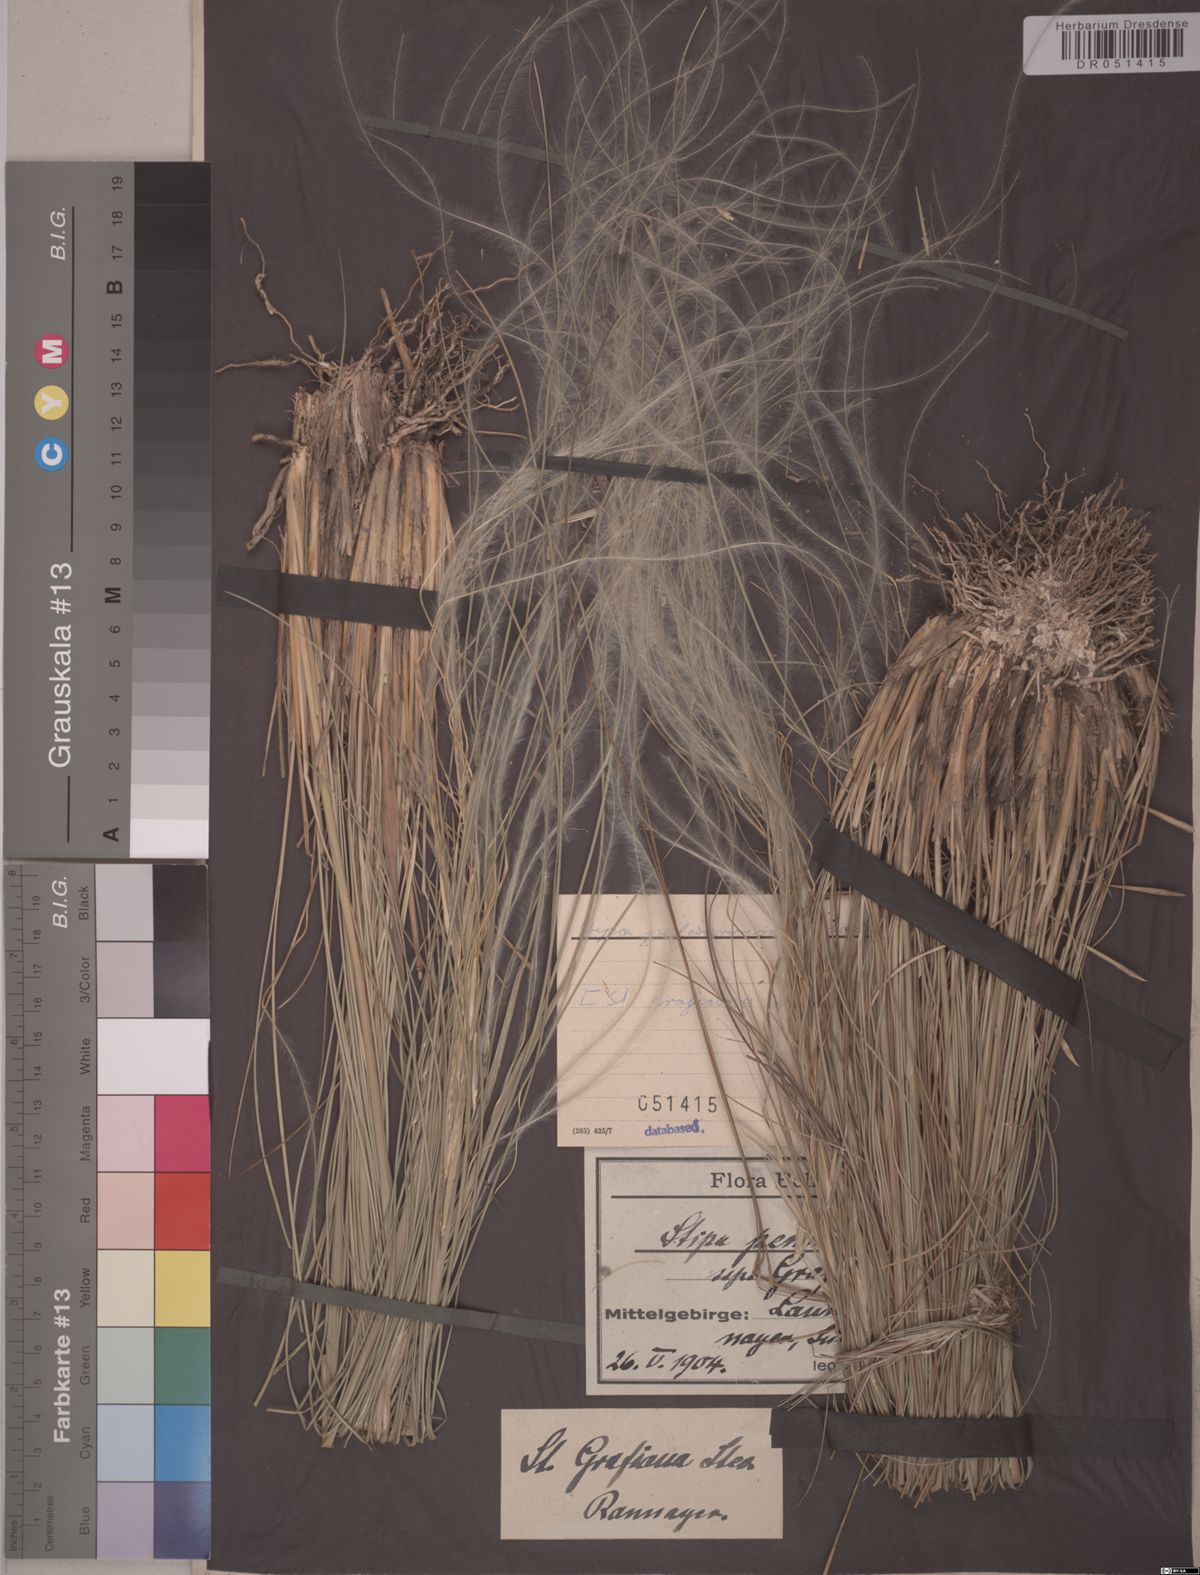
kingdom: Plantae
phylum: Tracheophyta
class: Liliopsida
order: Poales
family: Poaceae
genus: Stipa
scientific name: Stipa pulcherrima
